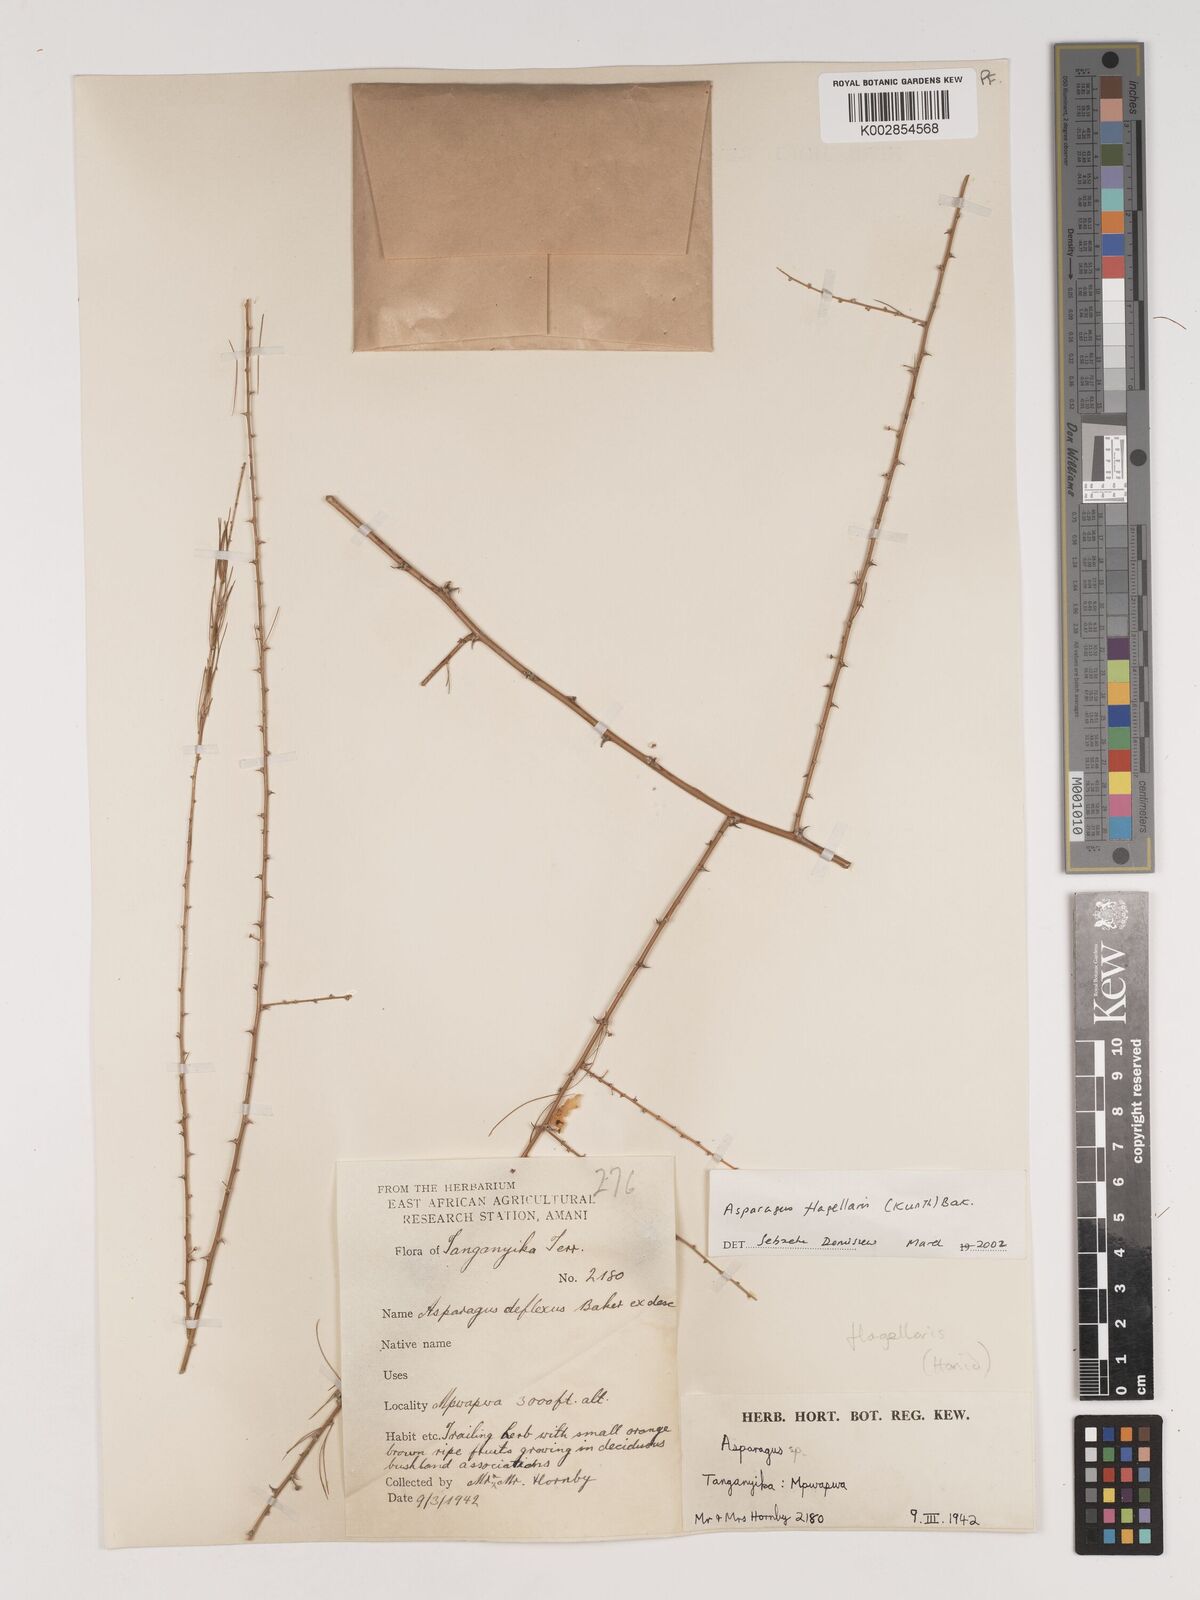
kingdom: Plantae
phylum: Tracheophyta
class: Liliopsida
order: Asparagales
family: Asparagaceae
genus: Asparagus
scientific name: Asparagus flagellaris
